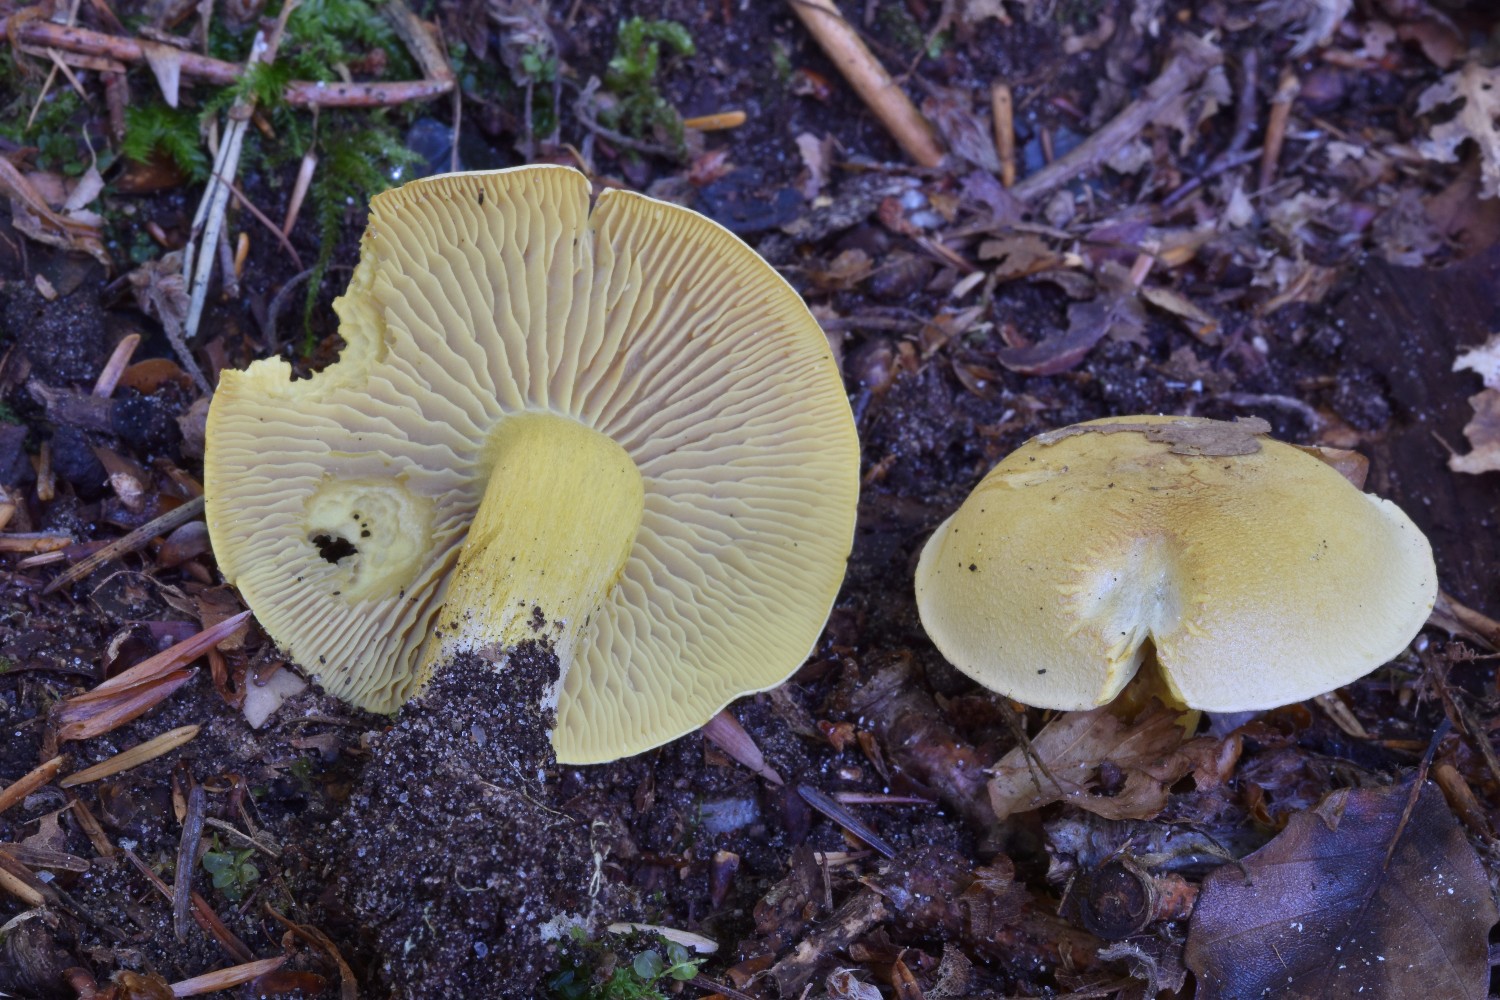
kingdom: Fungi
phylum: Basidiomycota
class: Agaricomycetes
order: Agaricales
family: Tricholomataceae
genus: Tricholoma
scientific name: Tricholoma sulphureum
